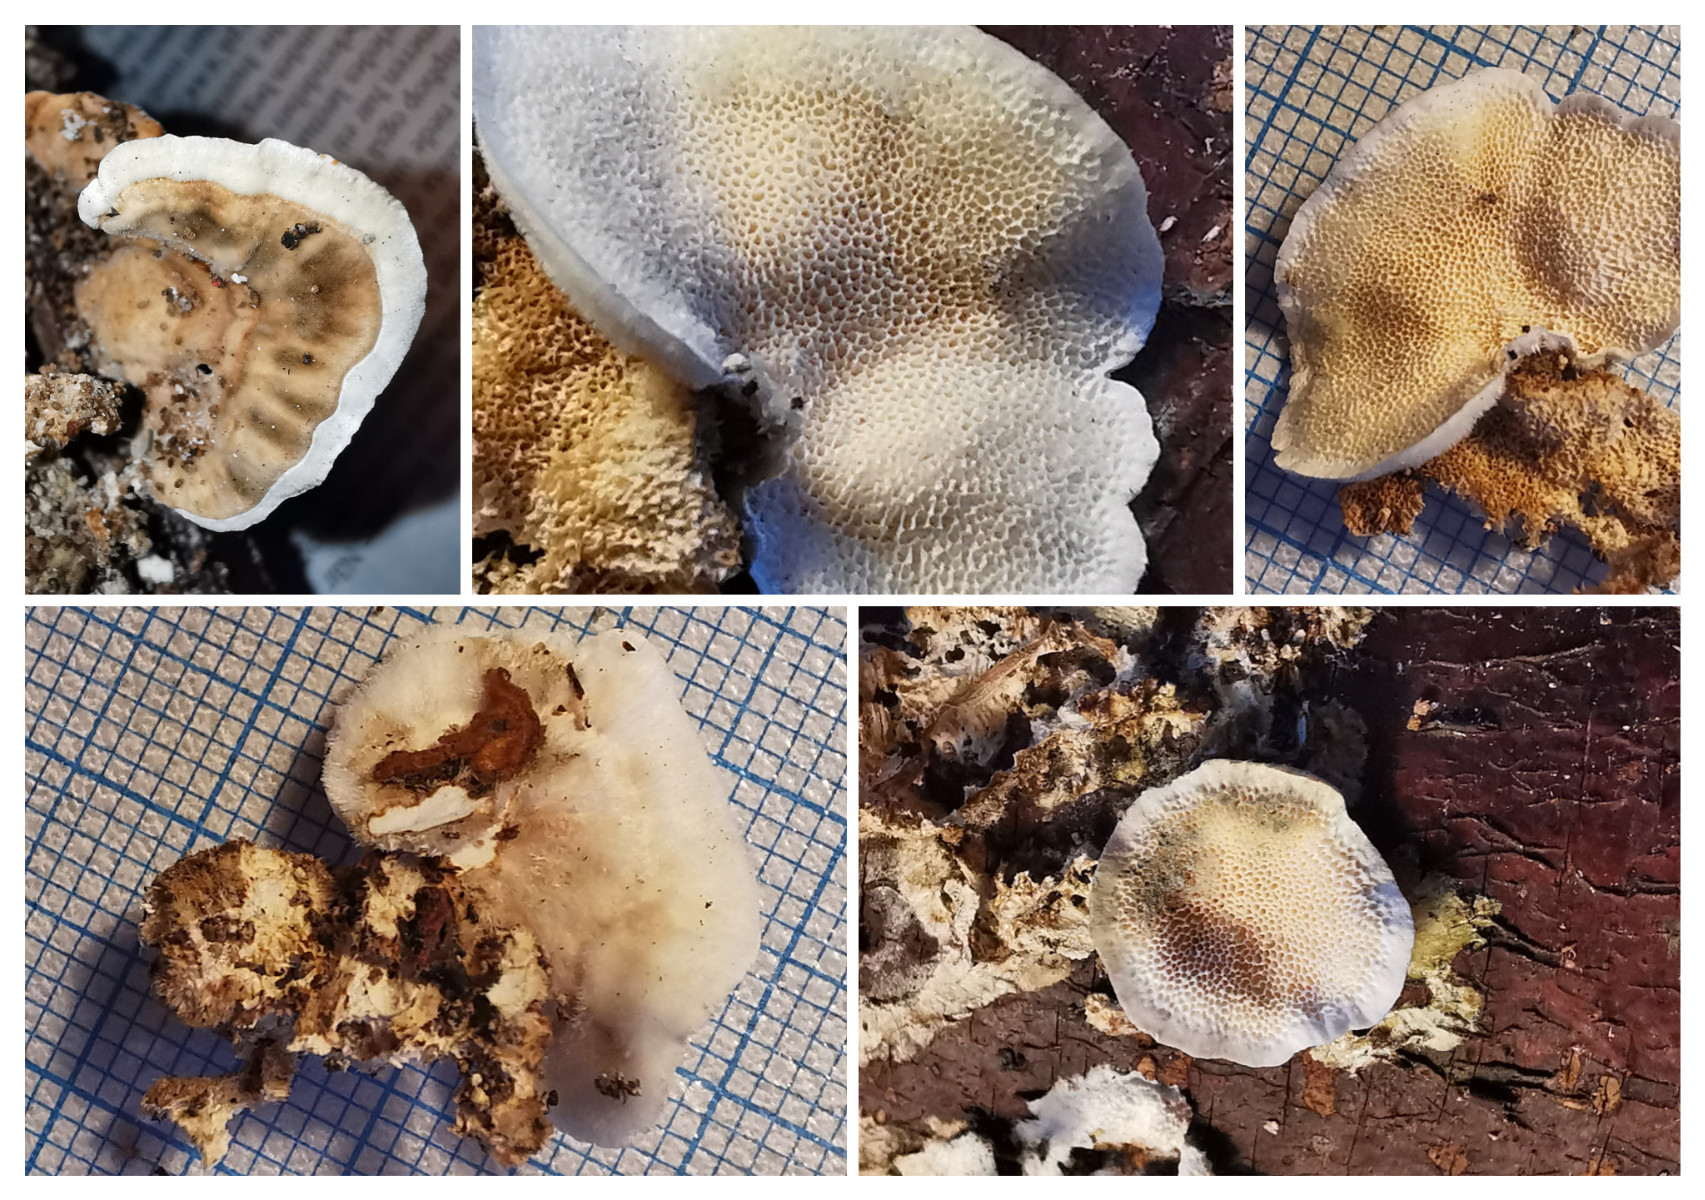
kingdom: Fungi
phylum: Basidiomycota
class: Agaricomycetes
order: Polyporales
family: Polyporaceae
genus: Trametes
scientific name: Trametes
